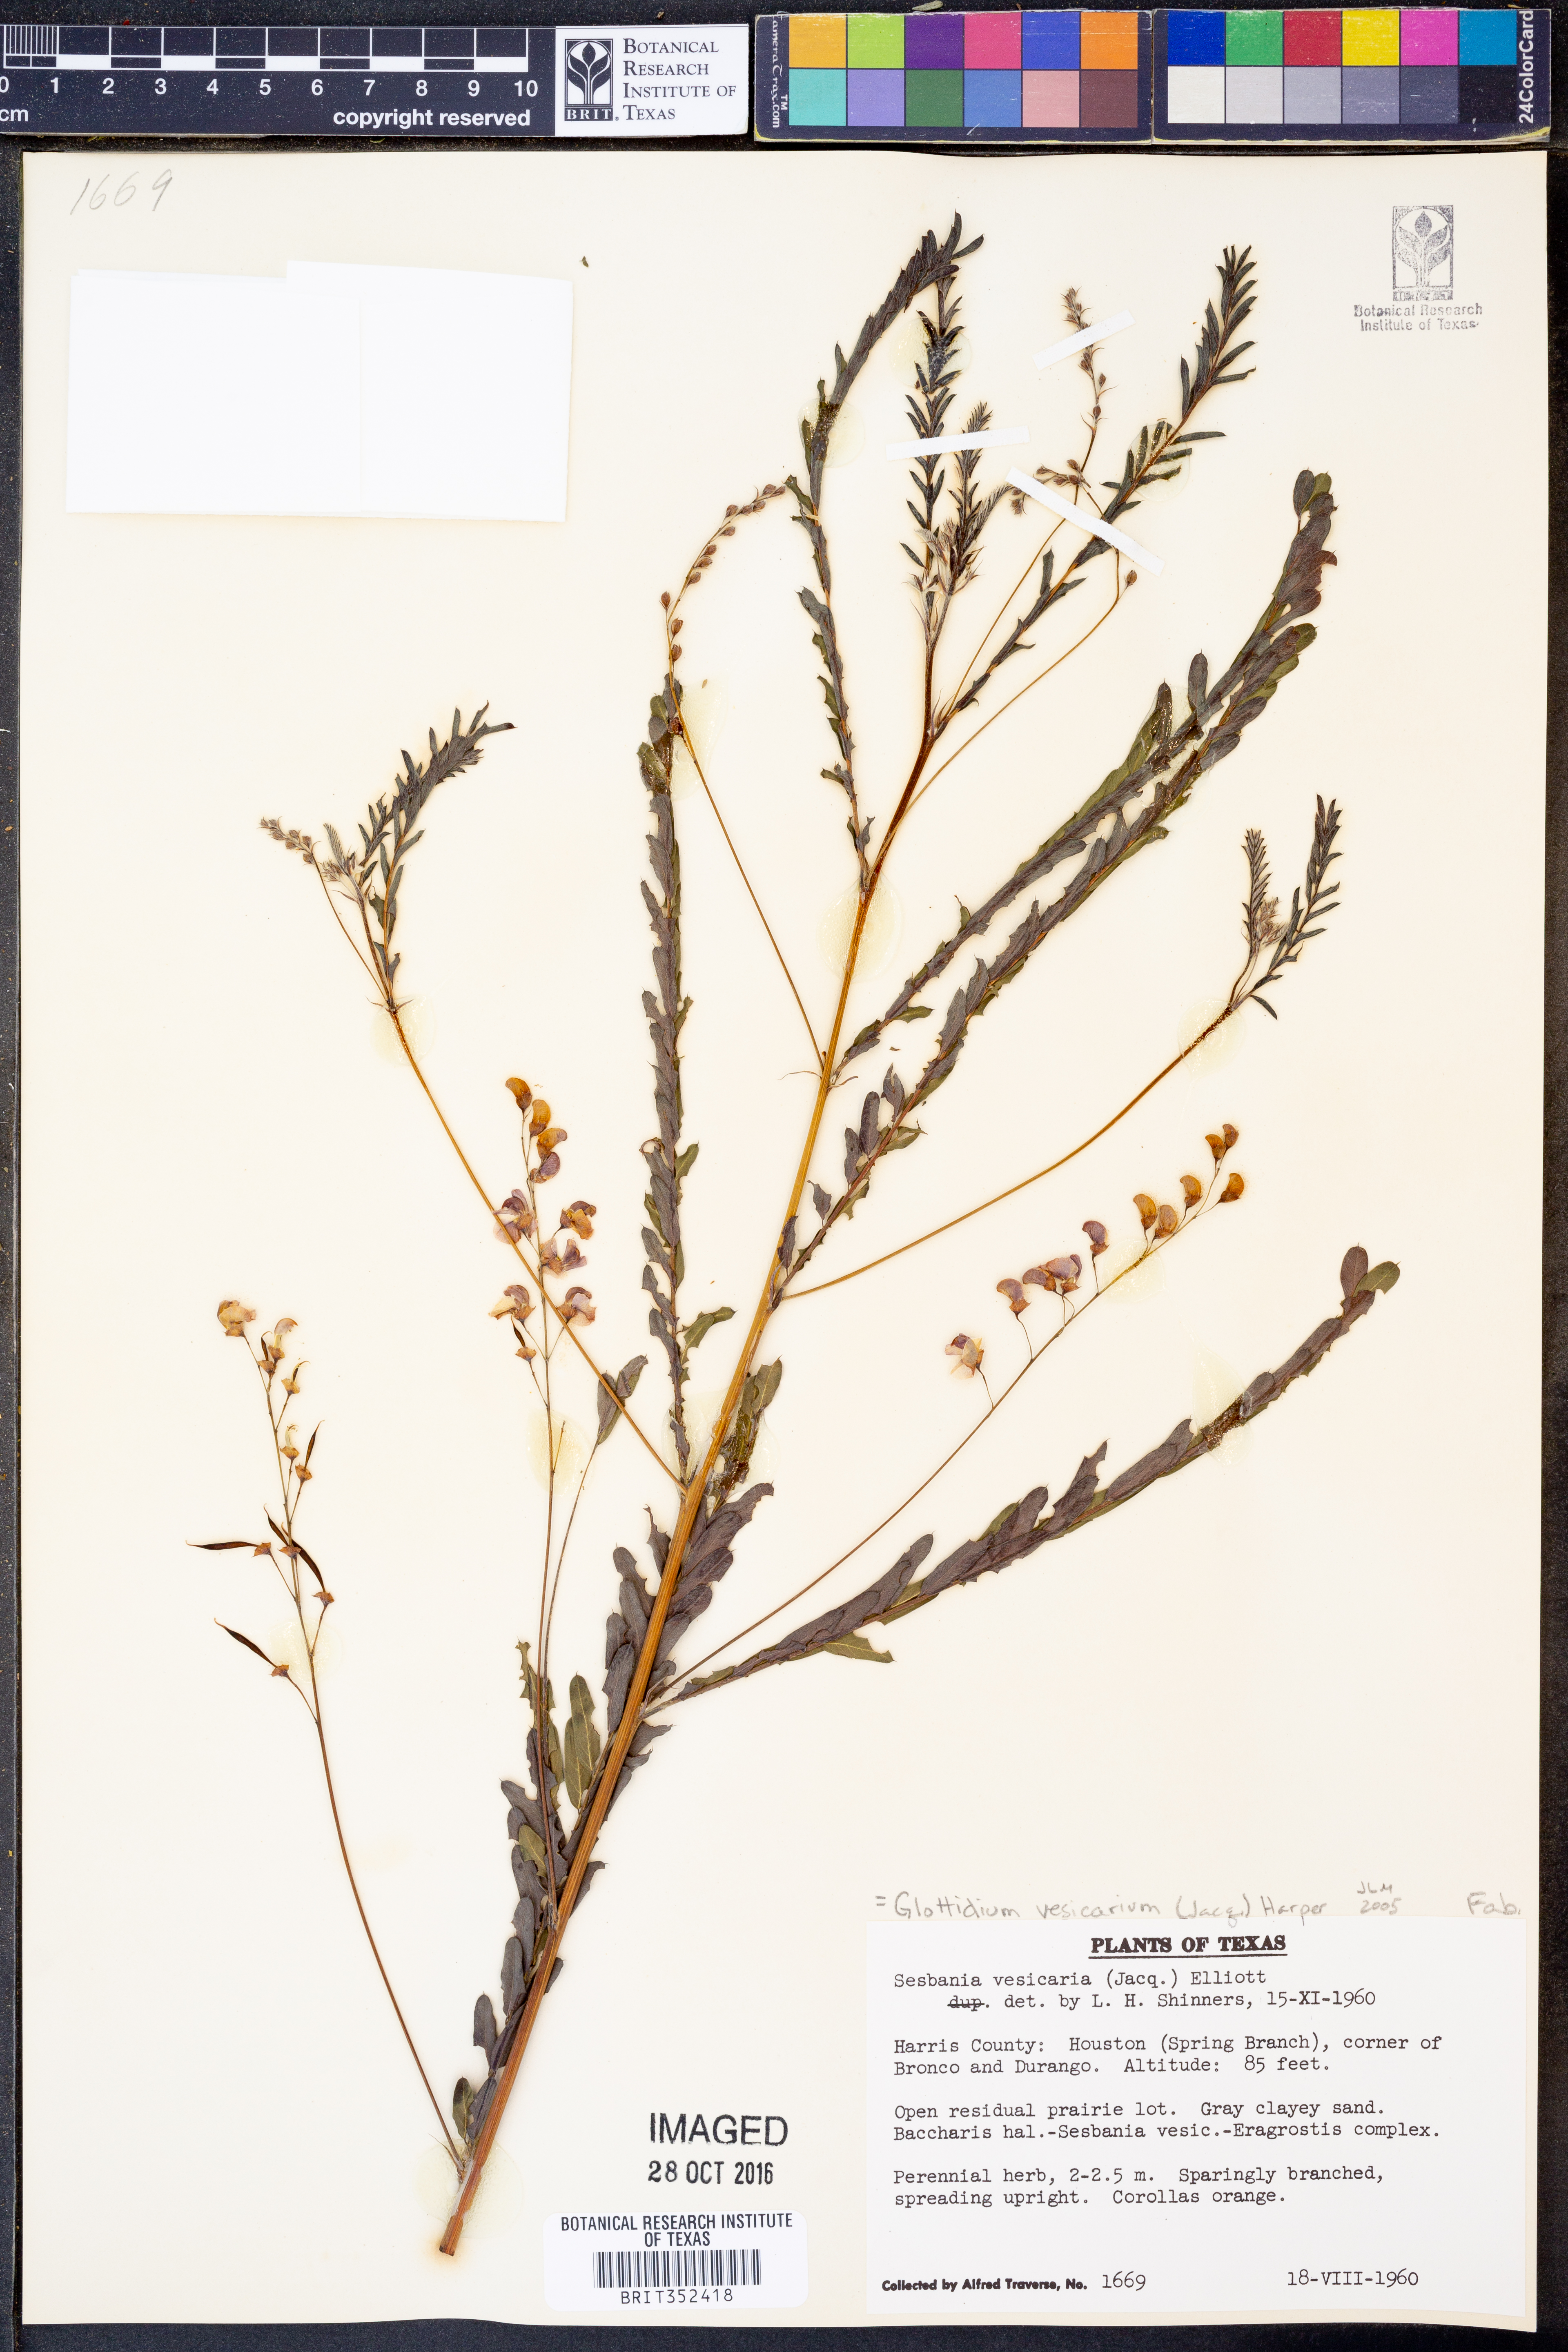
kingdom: Plantae
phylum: Tracheophyta
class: Magnoliopsida
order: Fabales
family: Fabaceae
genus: Sesbania
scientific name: Sesbania vesicaria
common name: Bagpod
